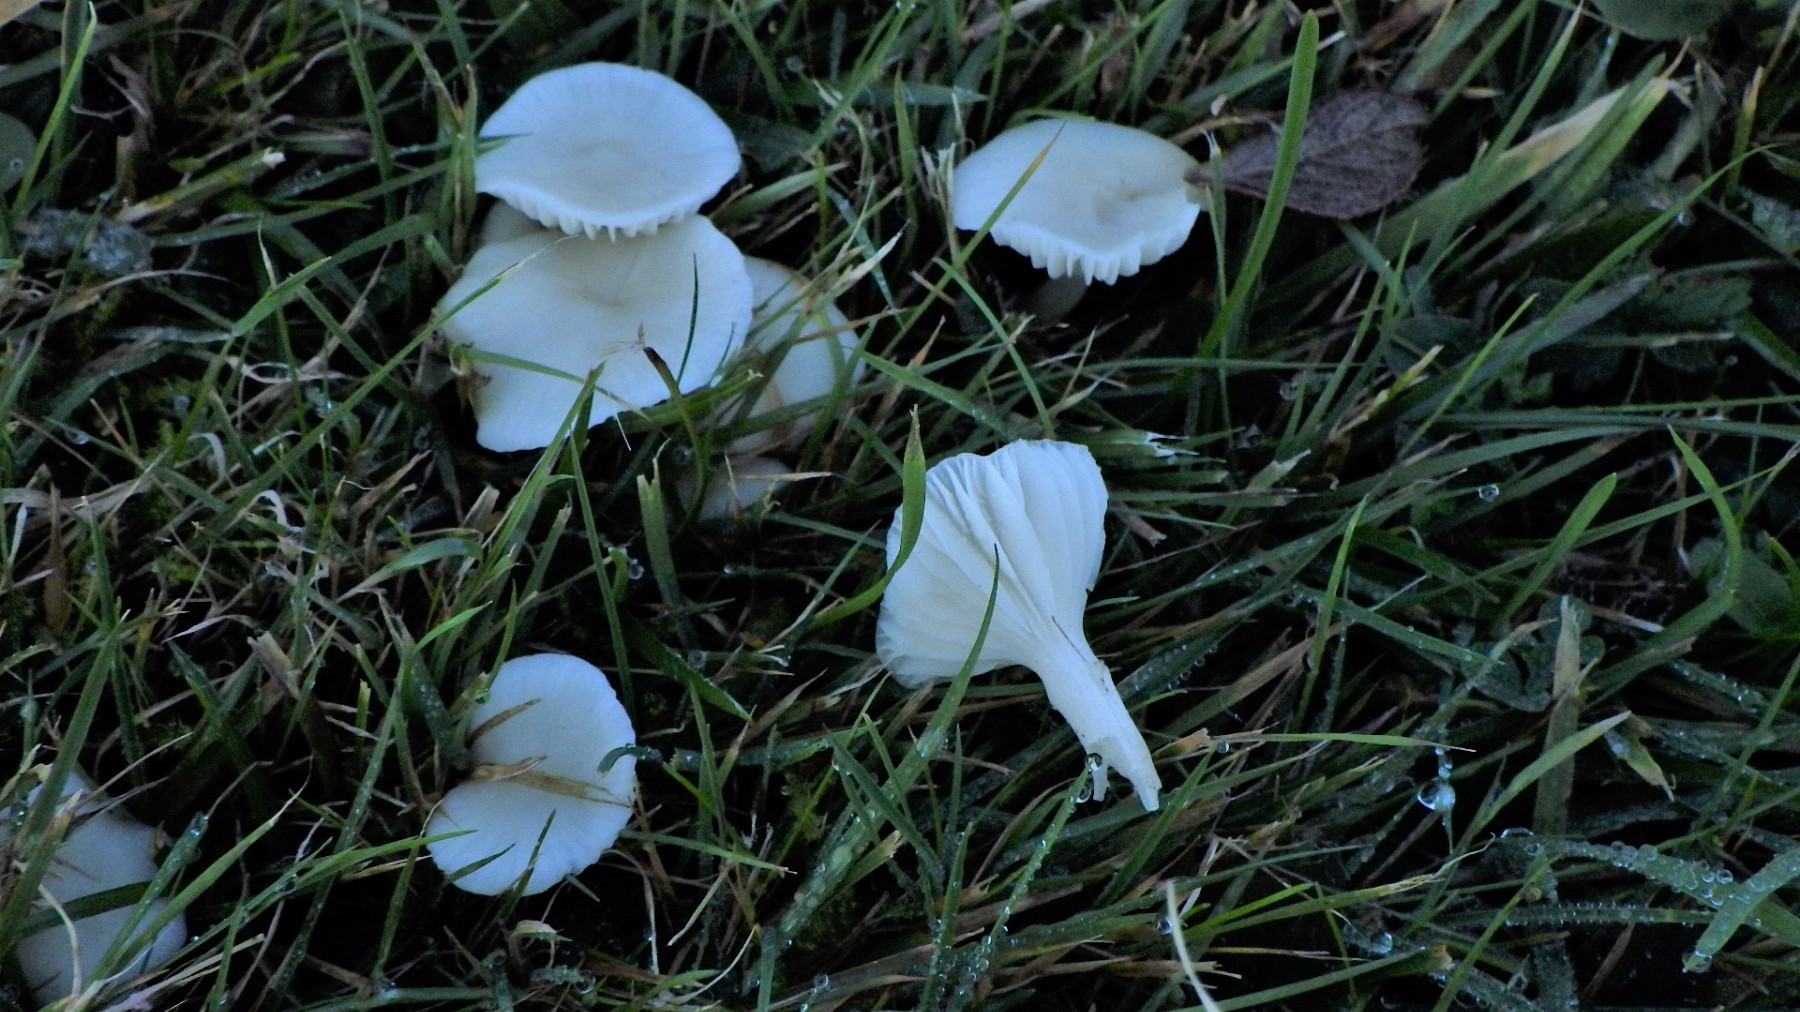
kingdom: Fungi
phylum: Basidiomycota
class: Agaricomycetes
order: Agaricales
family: Hygrophoraceae
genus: Cuphophyllus
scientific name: Cuphophyllus virgineus
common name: snehvid vokshat
